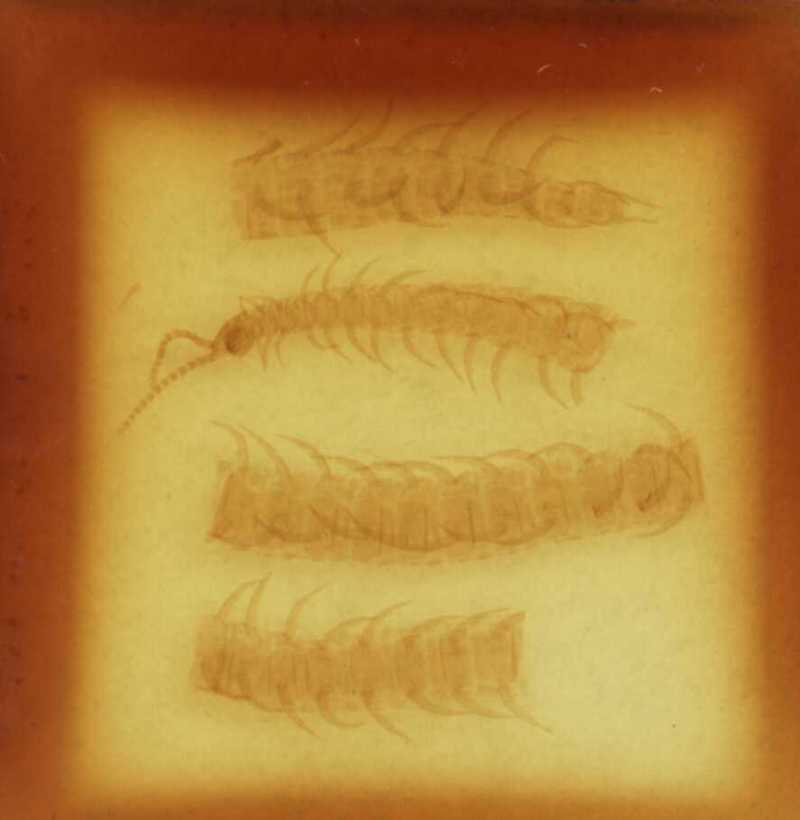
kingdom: Animalia
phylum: Arthropoda
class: Chilopoda
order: Geophilomorpha
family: Linotaeniidae
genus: Strigamia
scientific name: Strigamia acuminata
